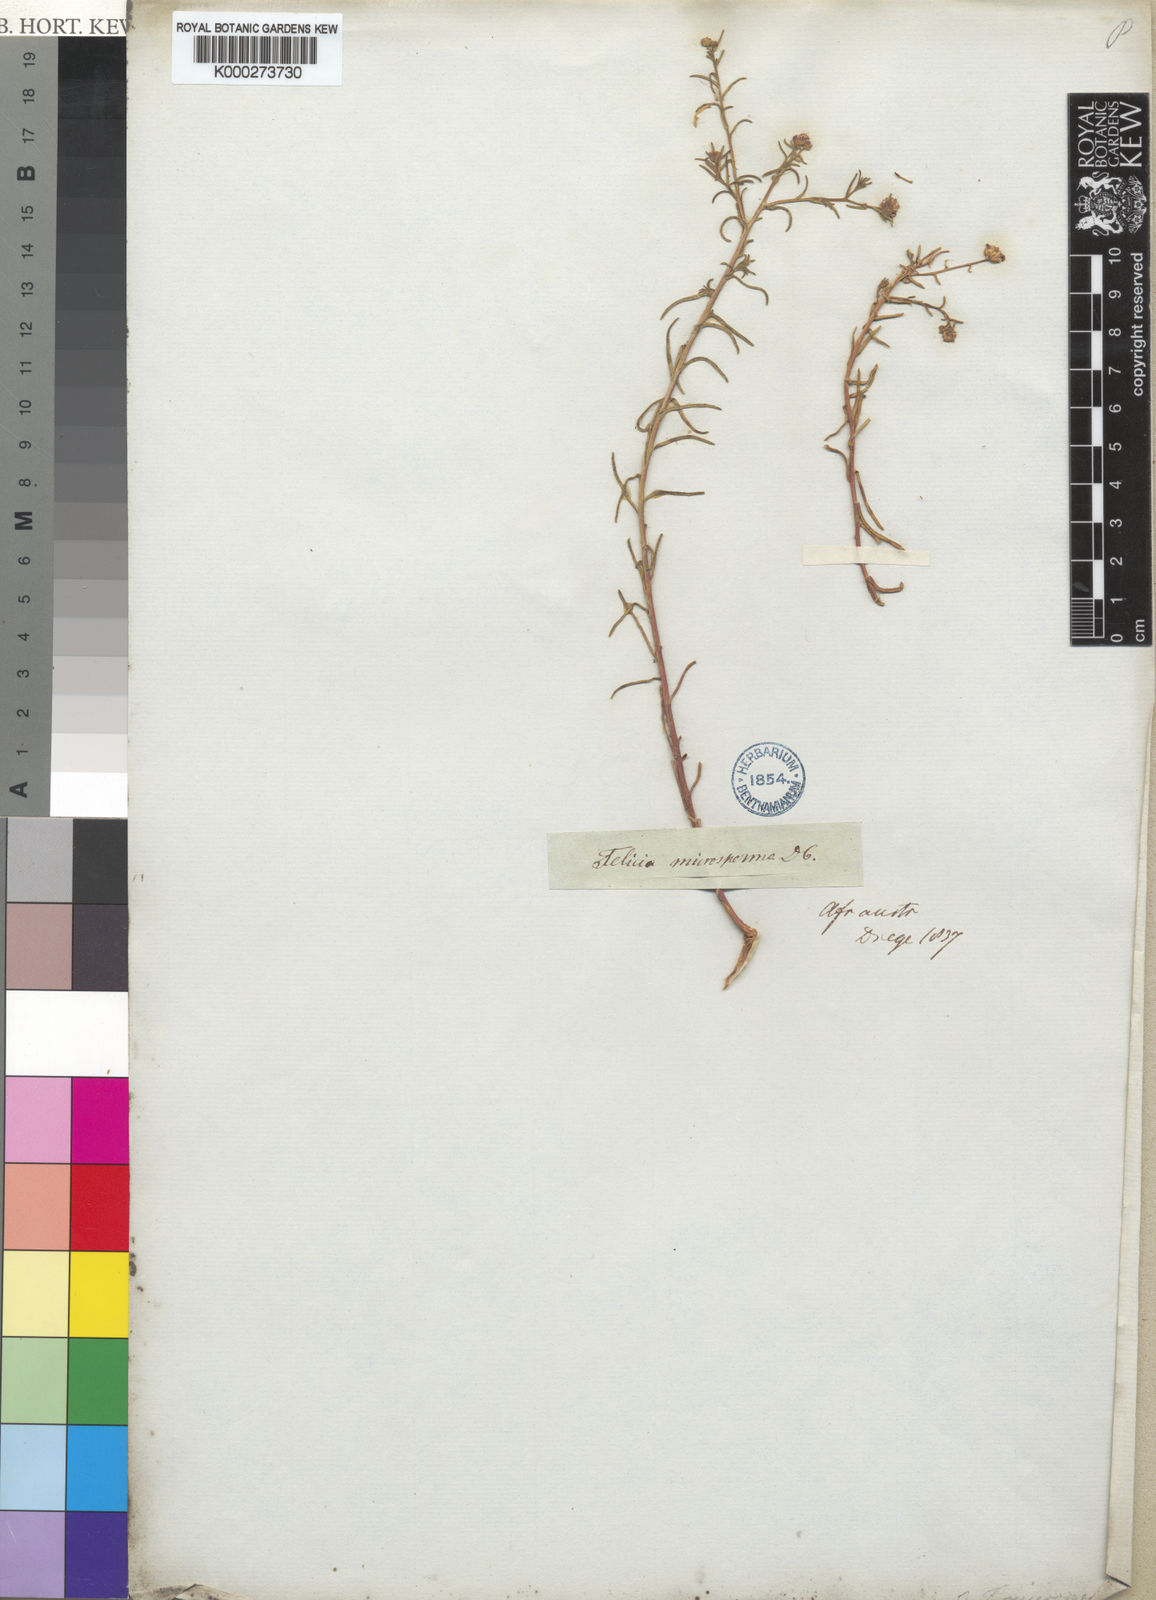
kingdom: Plantae
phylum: Tracheophyta
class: Magnoliopsida
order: Asterales
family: Asteraceae
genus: Felicia
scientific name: Felicia microsperma
